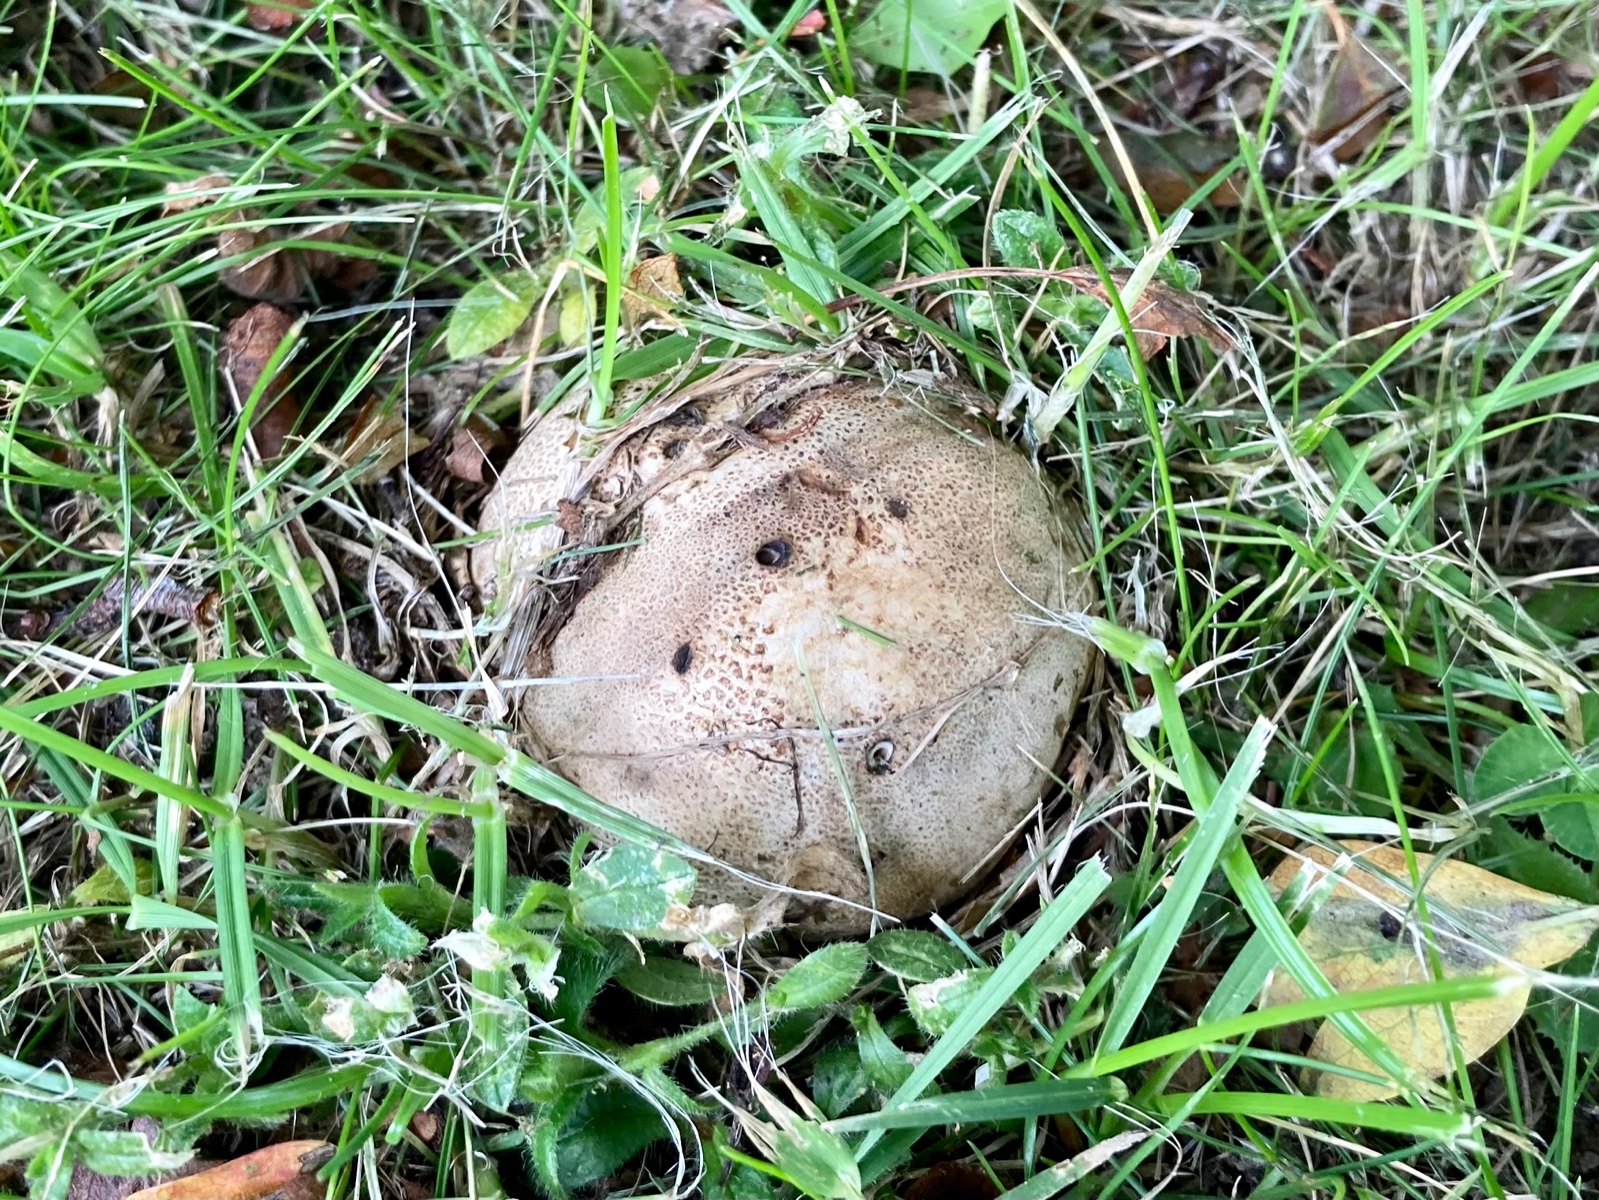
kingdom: Fungi
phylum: Basidiomycota
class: Agaricomycetes
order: Boletales
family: Sclerodermataceae
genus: Scleroderma
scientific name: Scleroderma citrinum
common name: almindelig bruskbold
